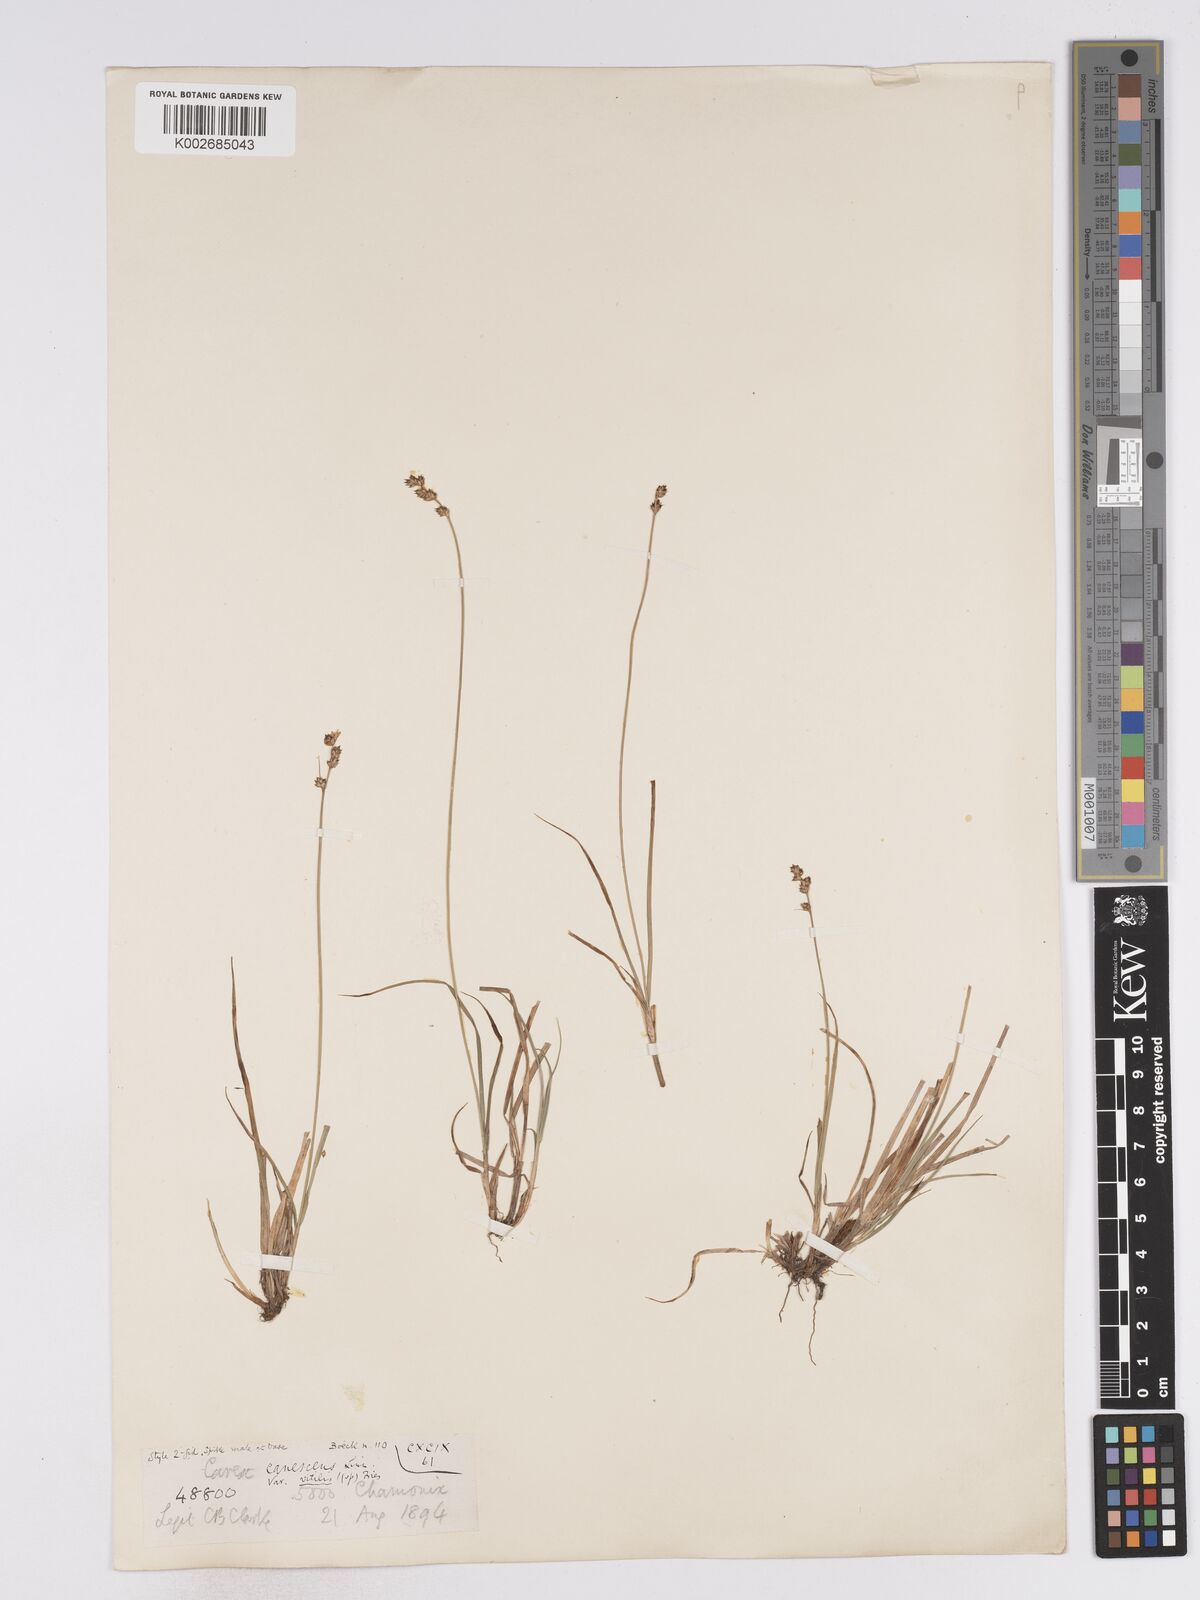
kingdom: Plantae
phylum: Tracheophyta
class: Liliopsida
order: Poales
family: Cyperaceae
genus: Carex
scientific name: Carex brunnescens
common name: Brown sedge
